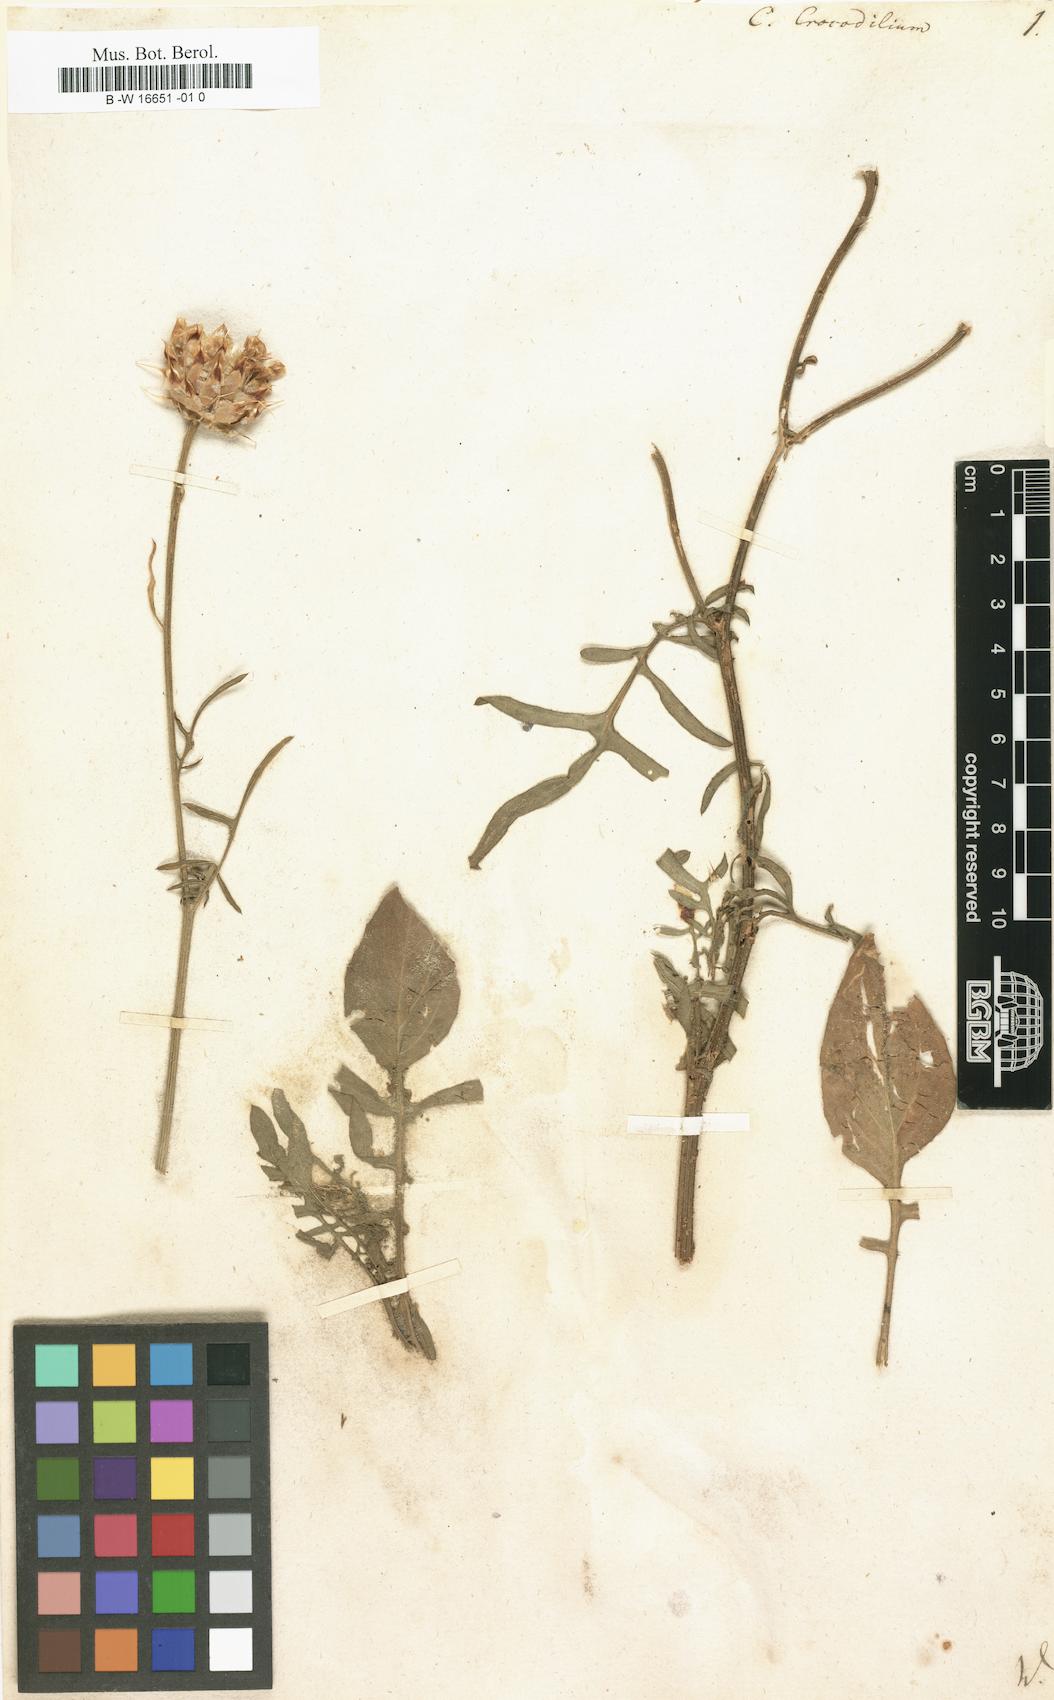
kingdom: Plantae
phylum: Tracheophyta
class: Magnoliopsida
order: Asterales
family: Asteraceae
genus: Crocodilium
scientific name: Crocodilium crocodylium
